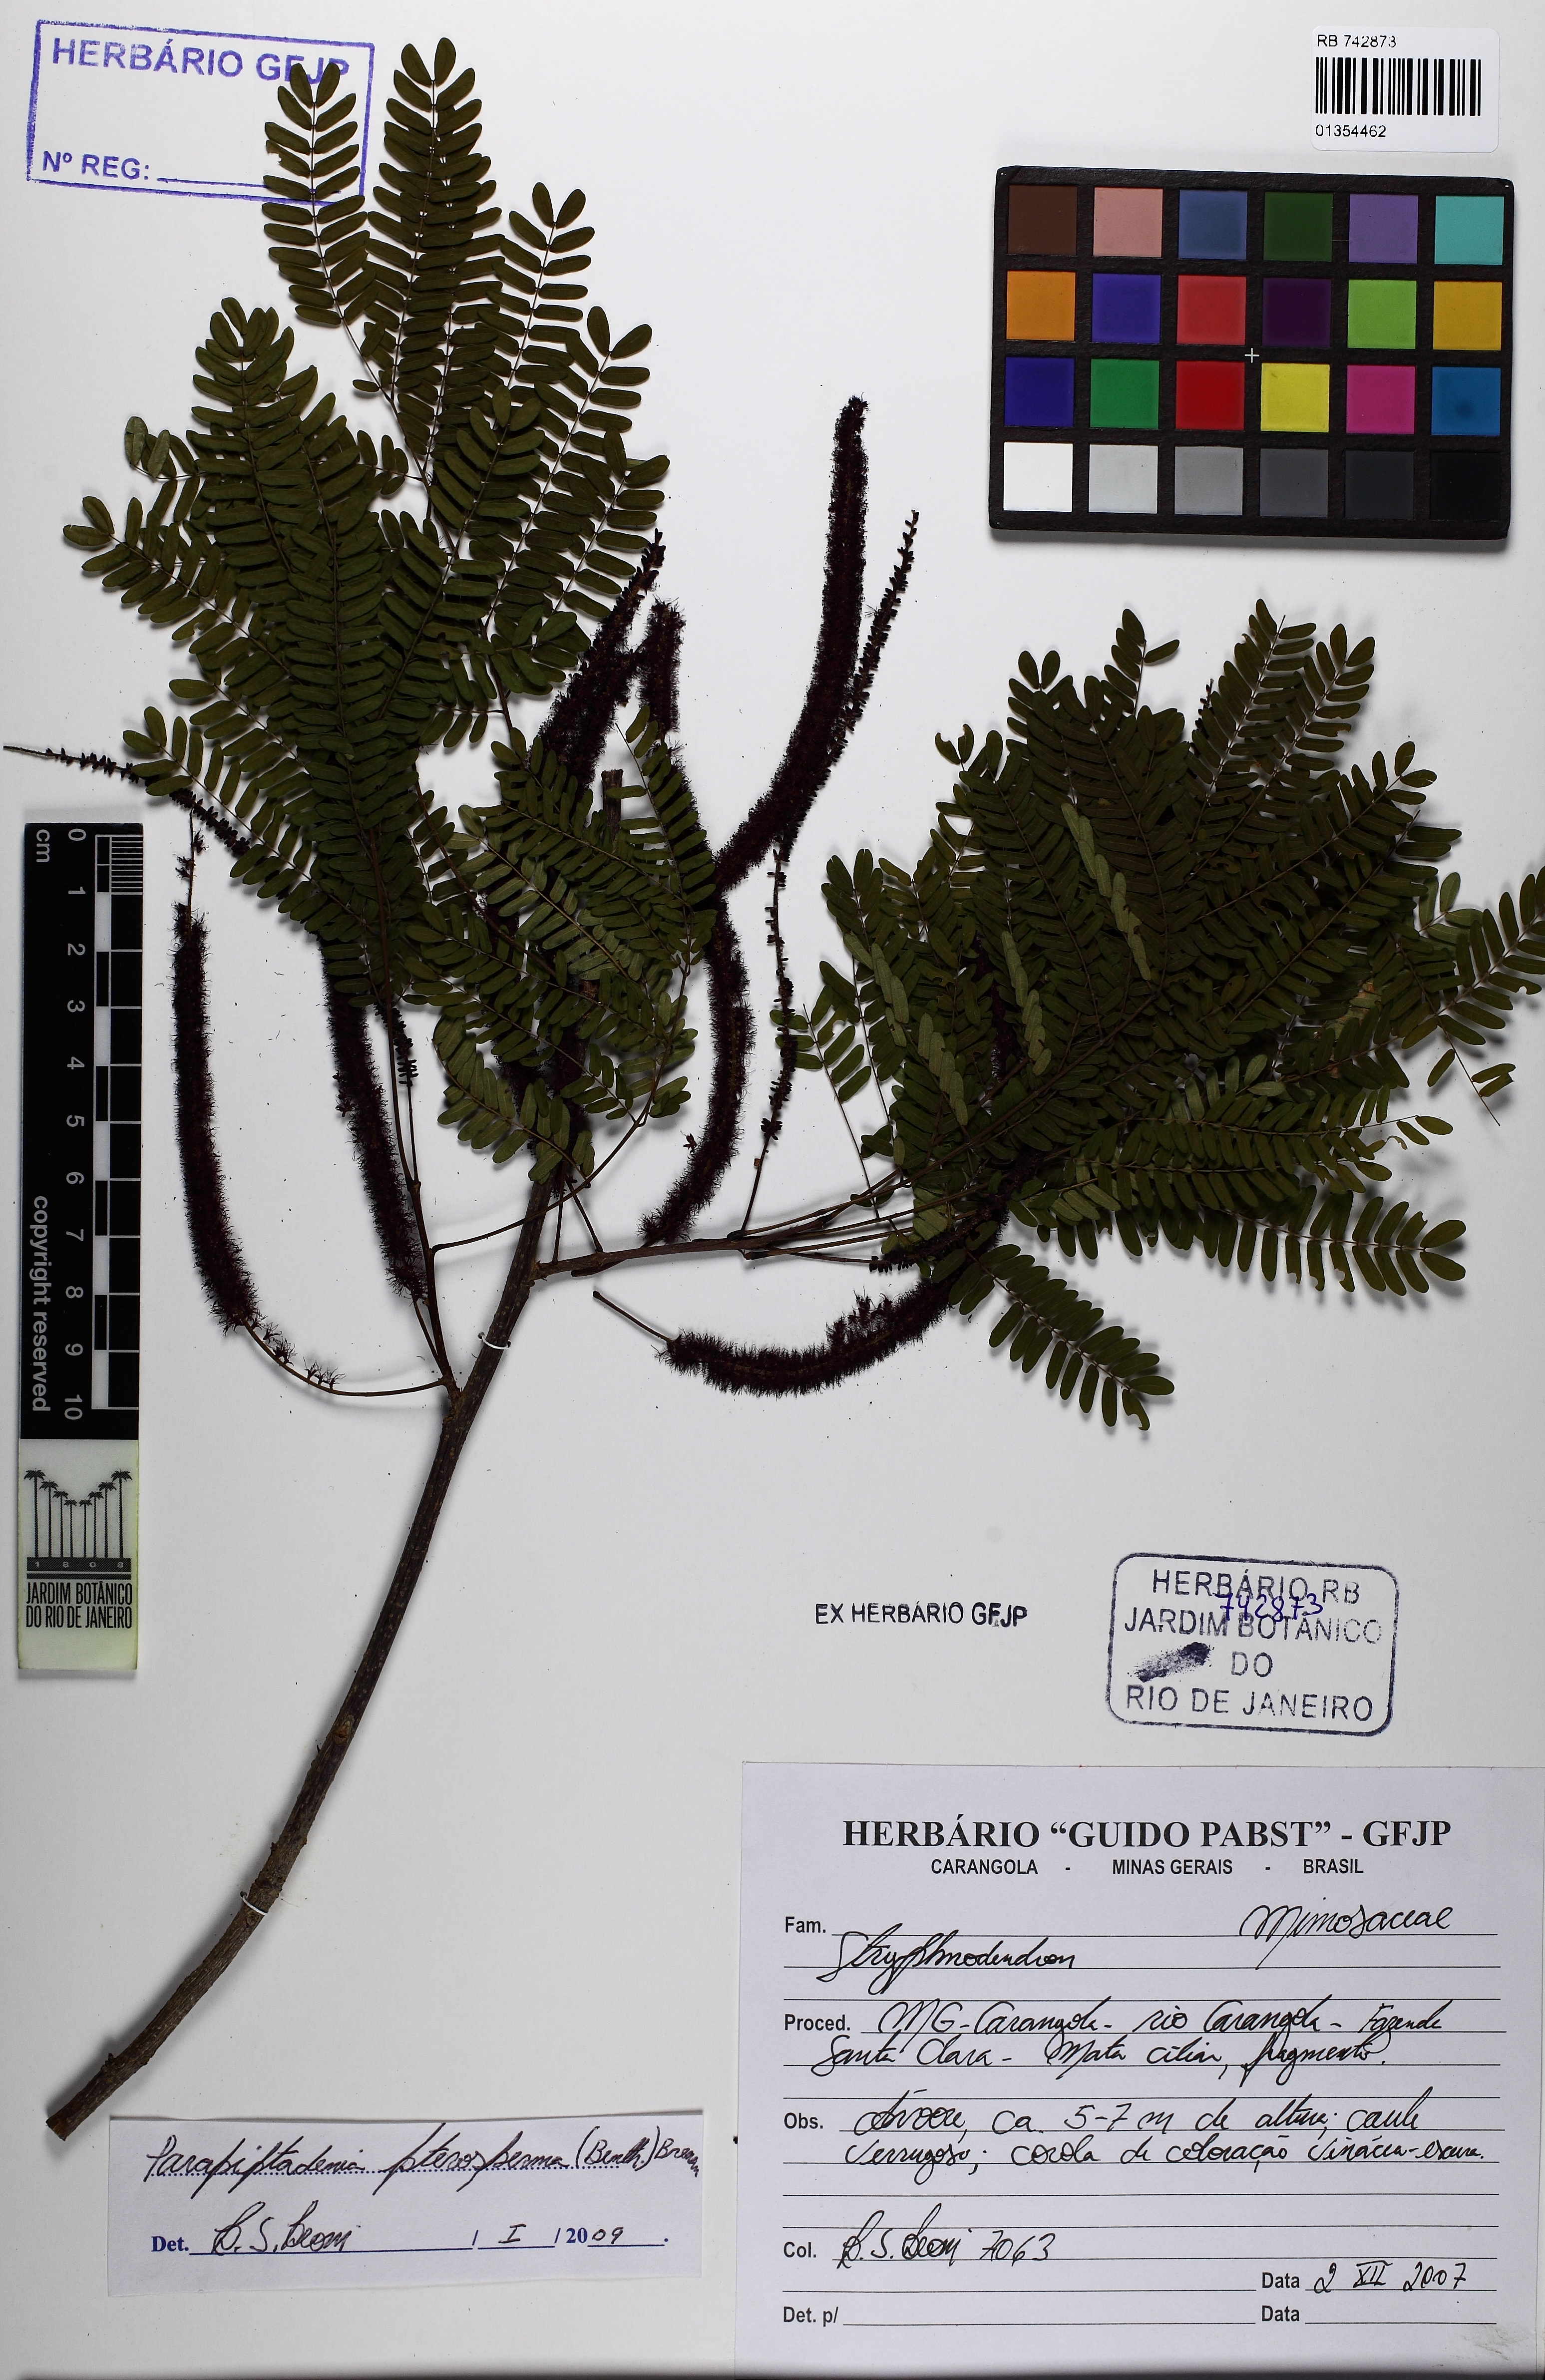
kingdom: Plantae
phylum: Tracheophyta
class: Magnoliopsida
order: Fabales
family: Fabaceae
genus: Parapiptadenia
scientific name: Parapiptadenia pterosperma
